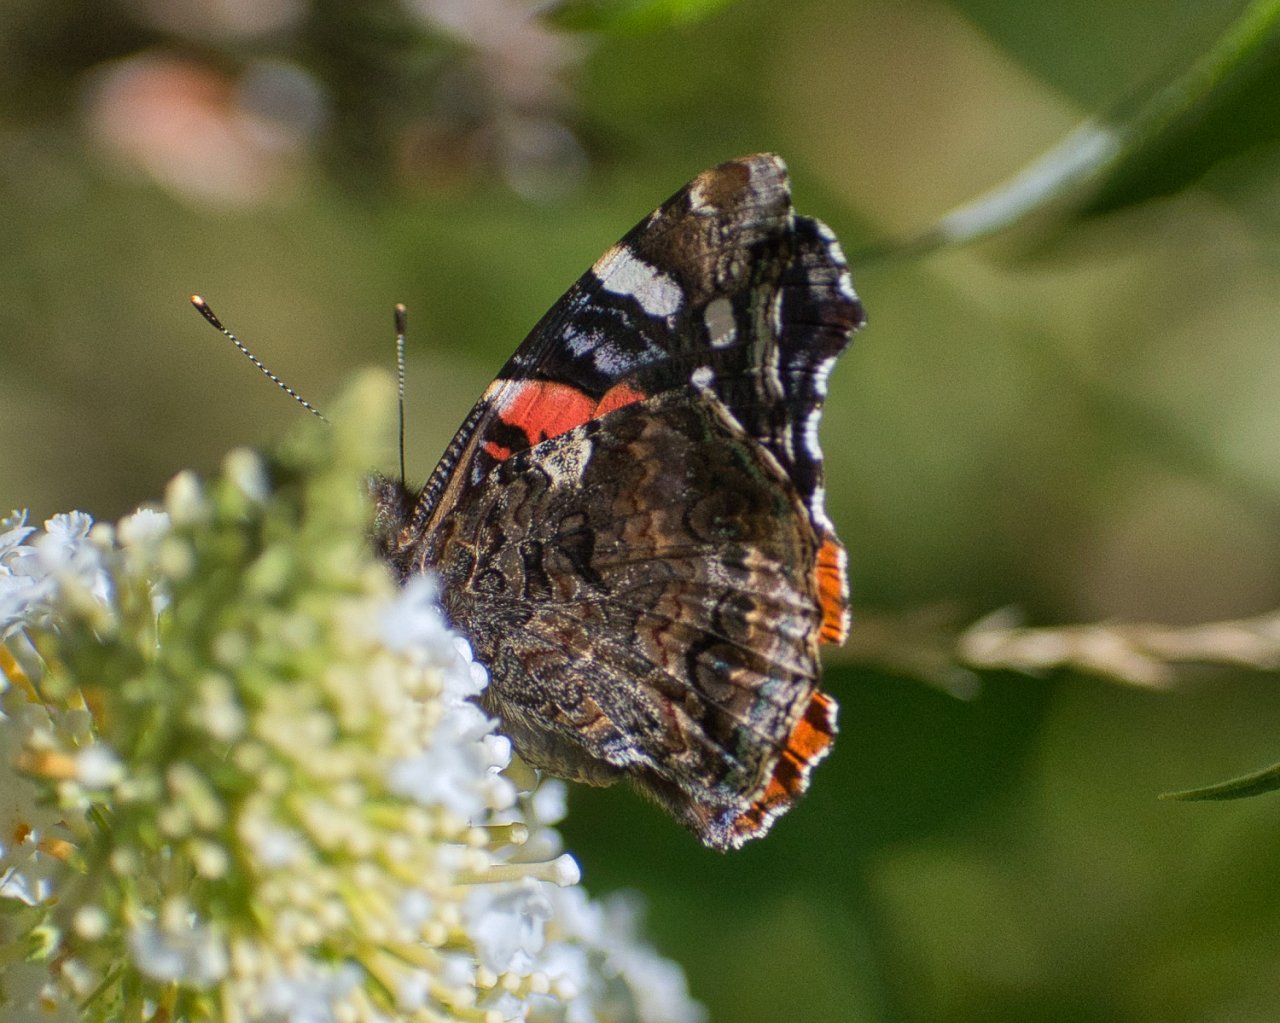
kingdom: Animalia
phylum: Arthropoda
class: Insecta
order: Lepidoptera
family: Nymphalidae
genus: Vanessa
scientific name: Vanessa atalanta
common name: Red Admiral
